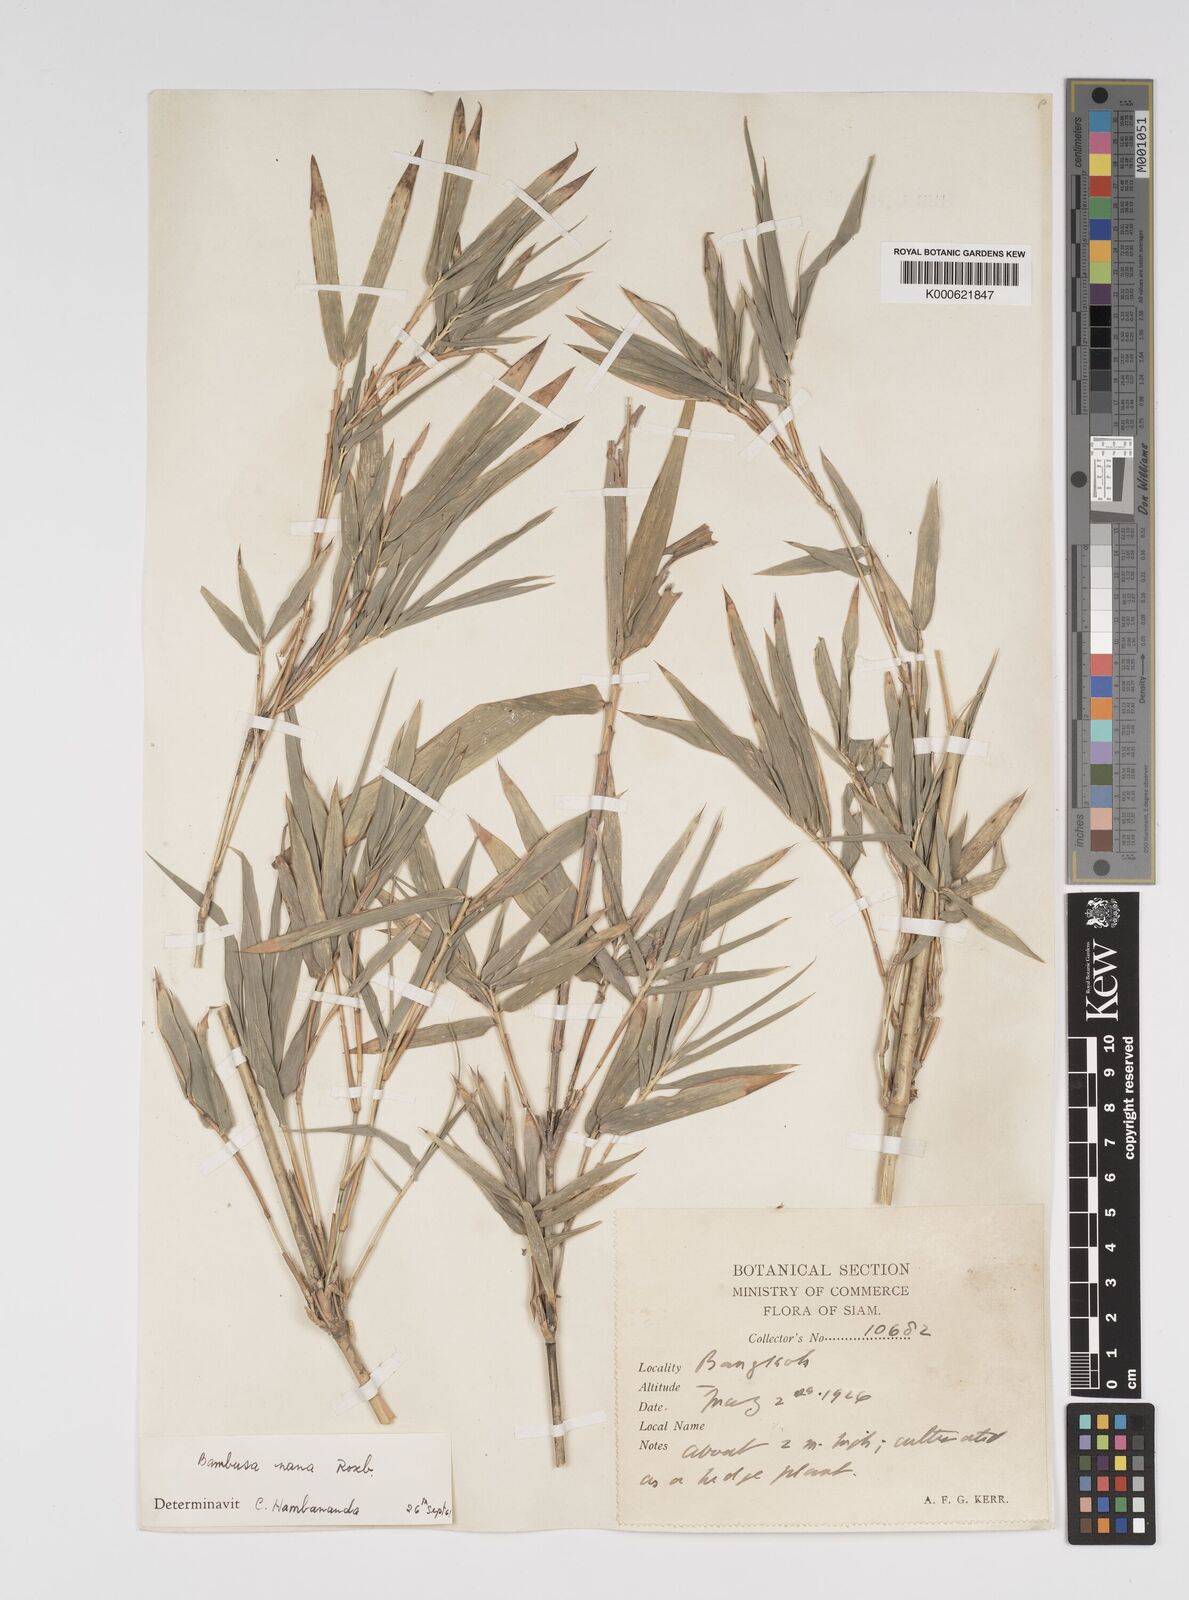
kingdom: Plantae
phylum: Tracheophyta
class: Liliopsida
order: Poales
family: Poaceae
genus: Bambusa
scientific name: Bambusa multiplex
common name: Hedge bamboo
